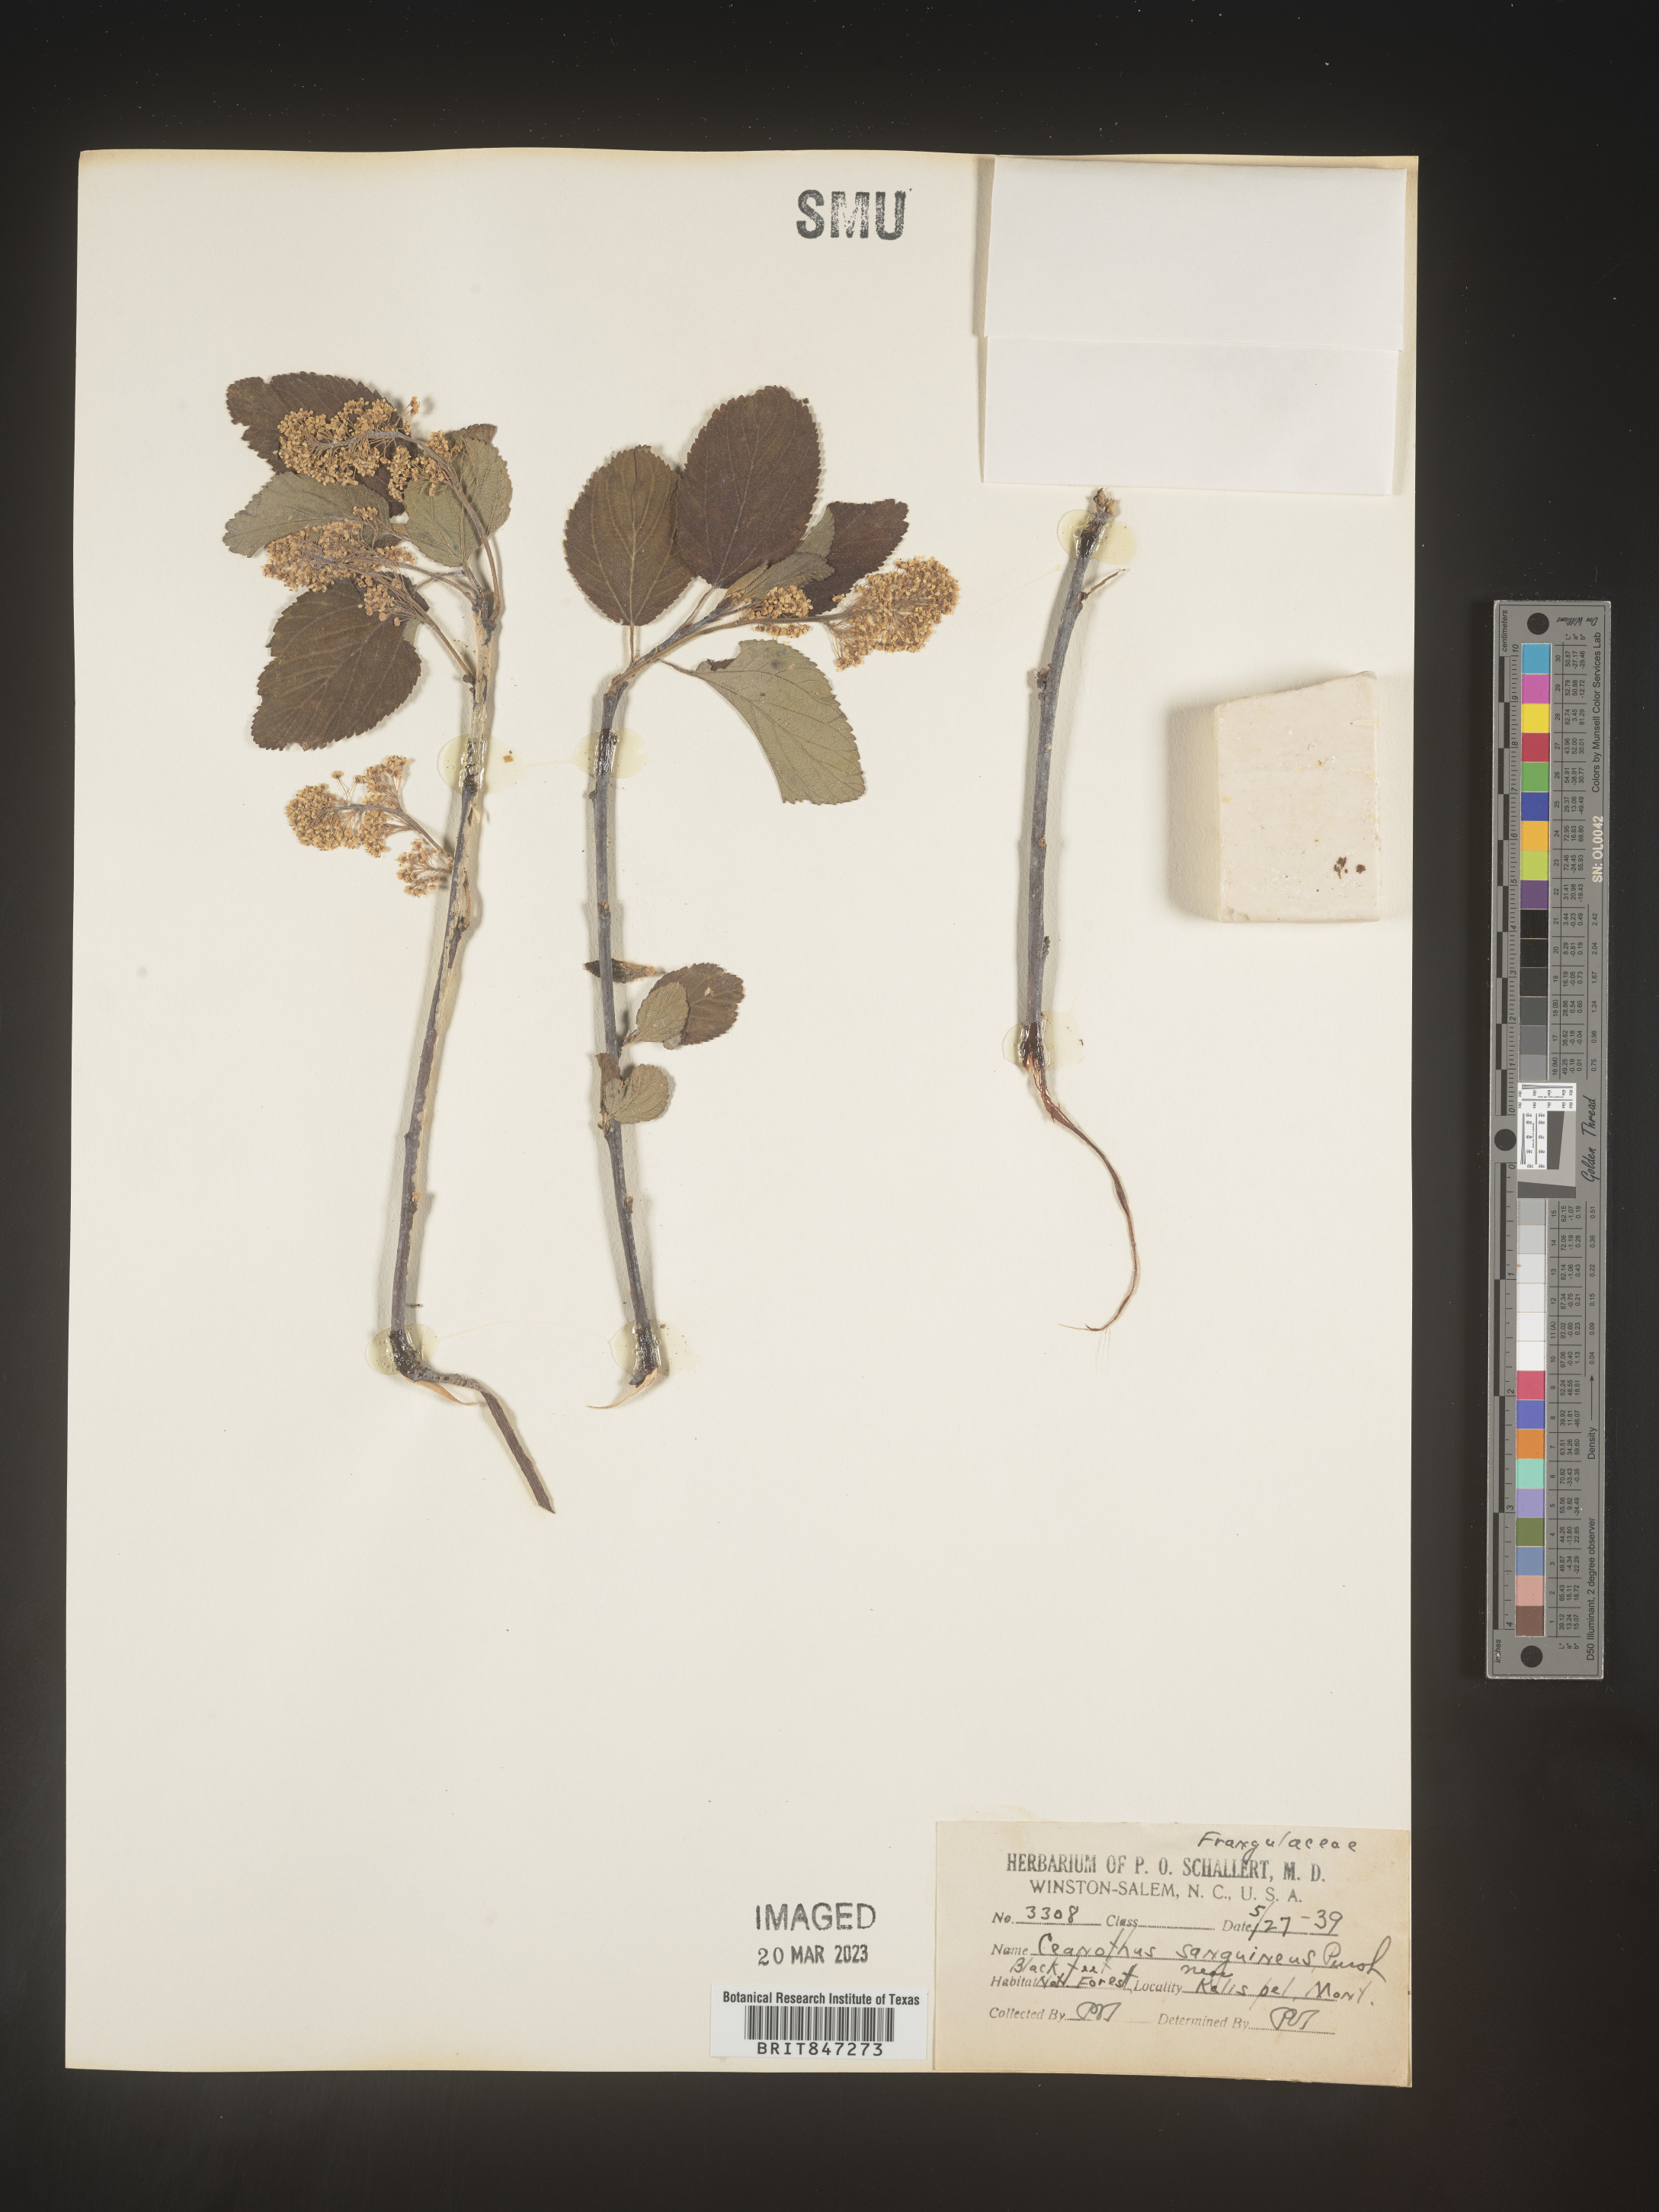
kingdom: Plantae
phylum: Tracheophyta
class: Magnoliopsida
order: Rosales
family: Rhamnaceae
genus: Ceanothus
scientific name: Ceanothus
